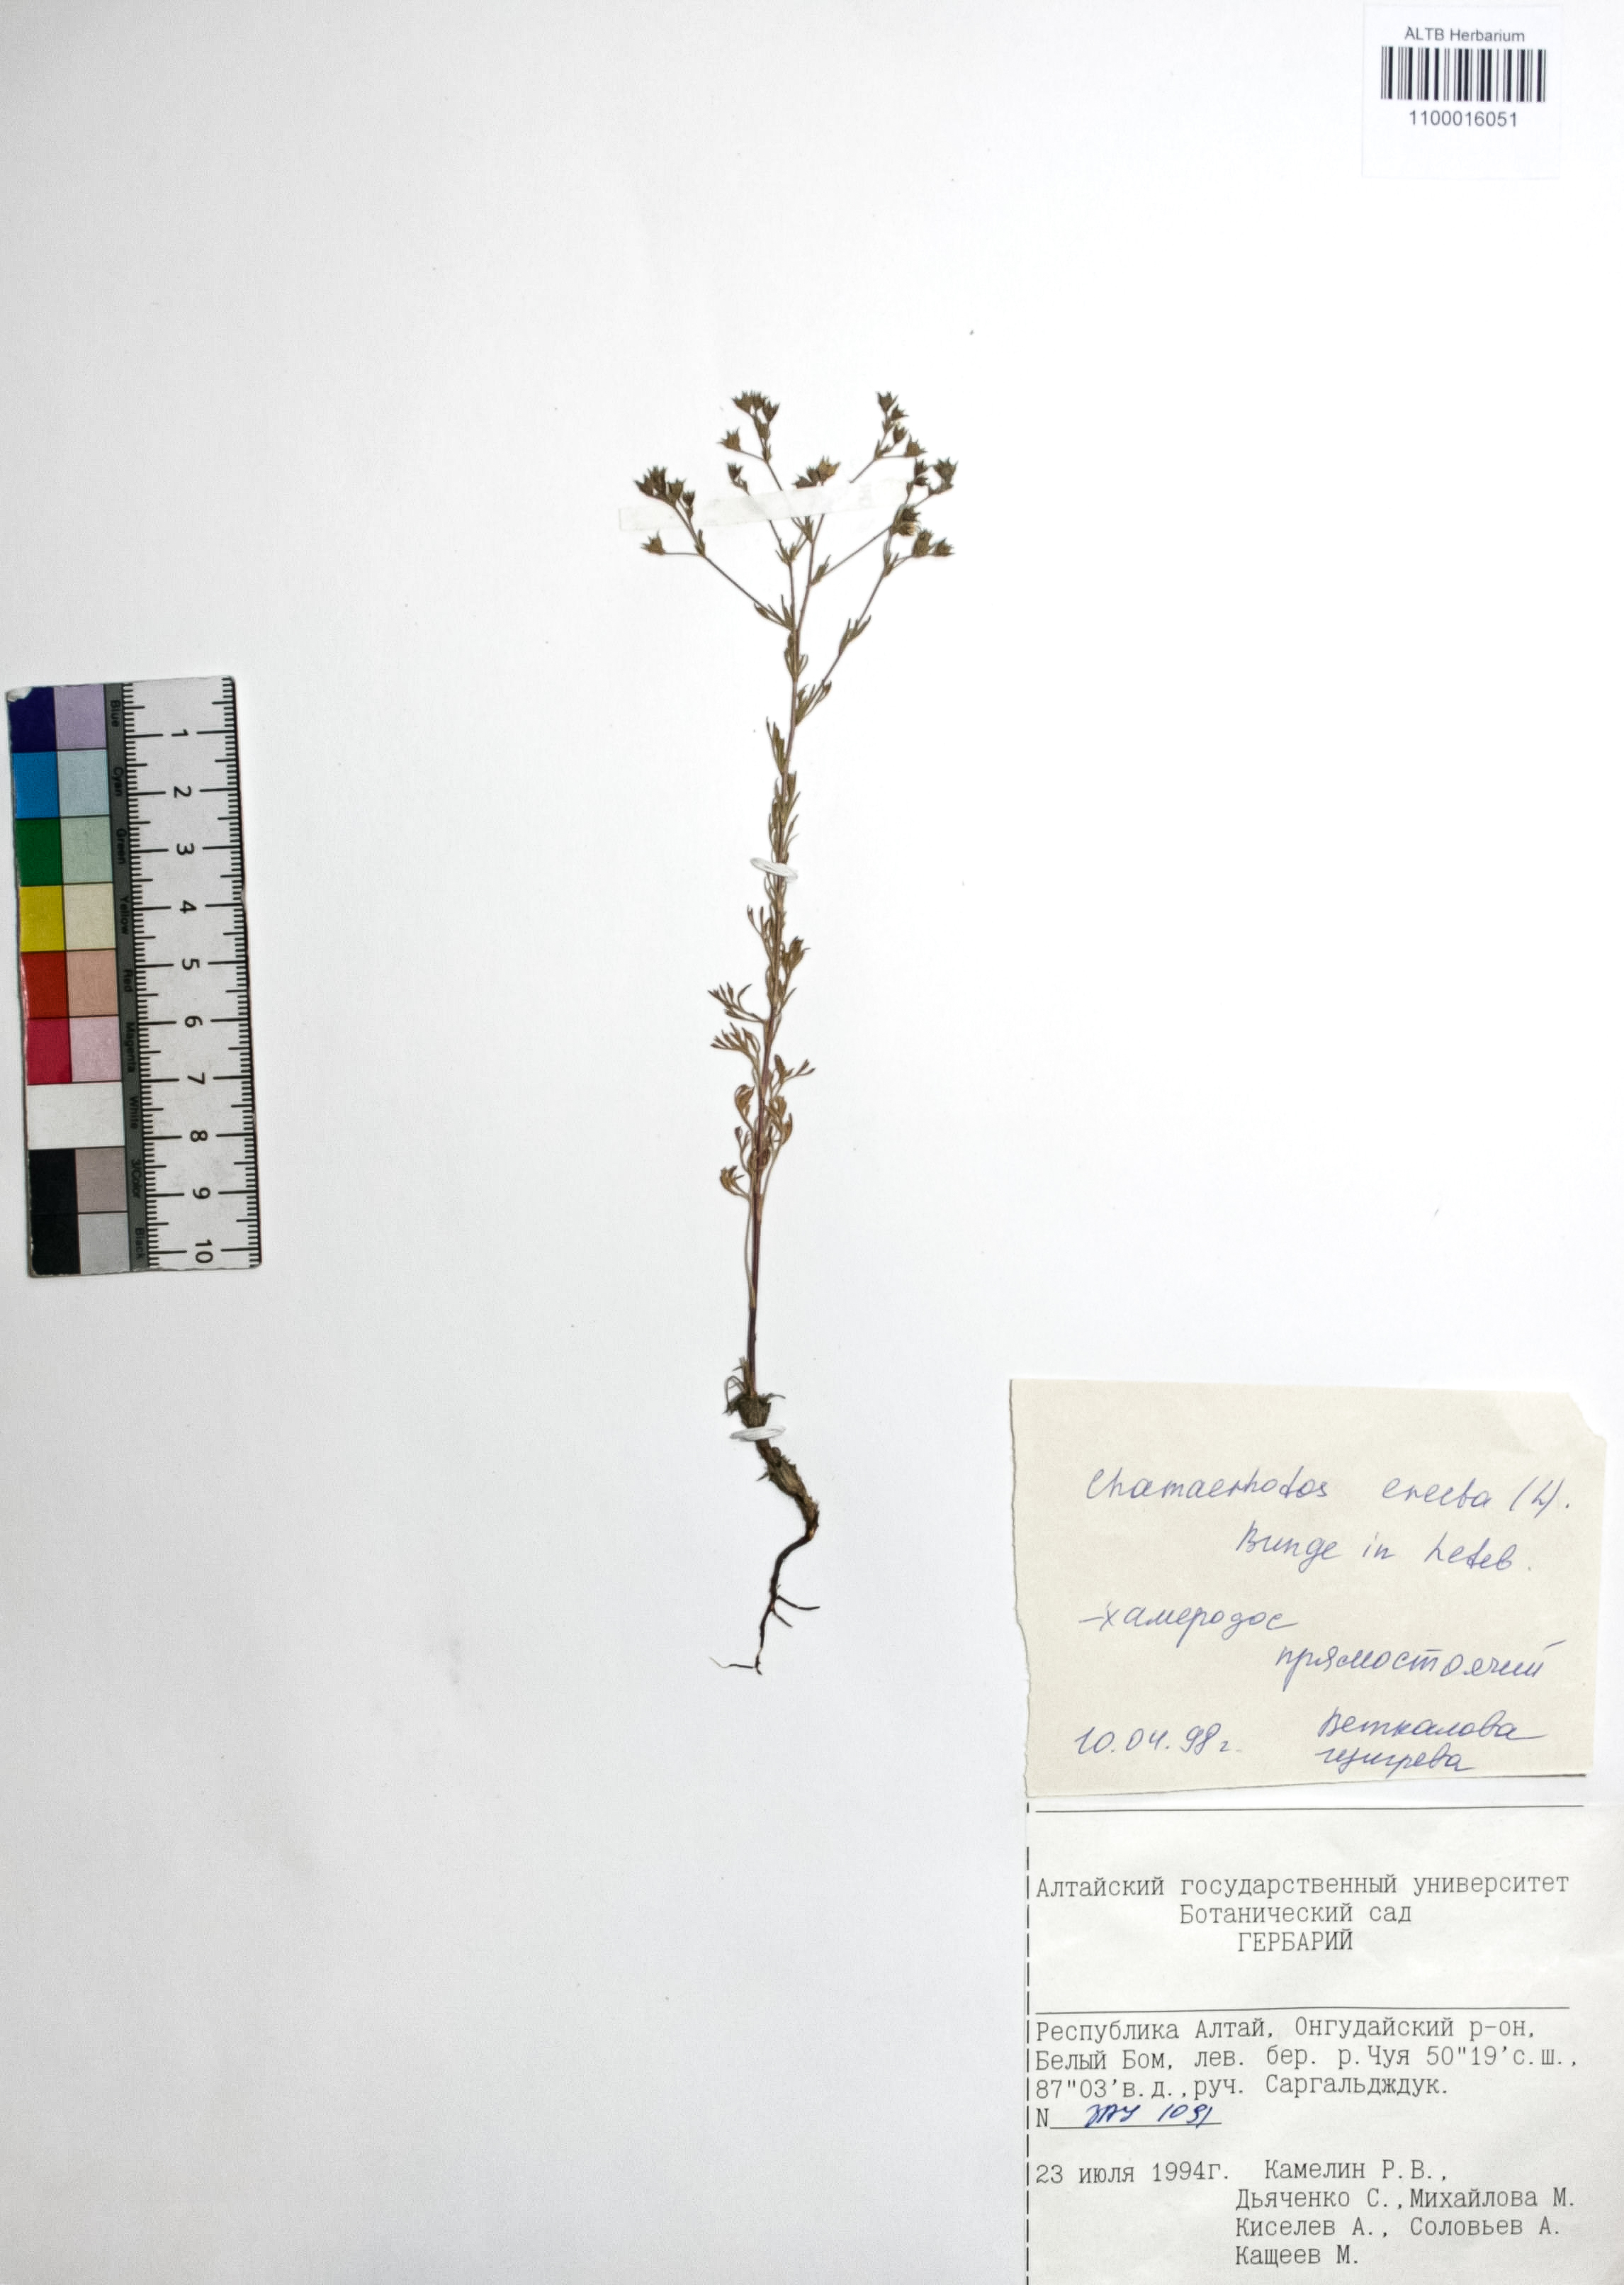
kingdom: Plantae
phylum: Tracheophyta
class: Magnoliopsida
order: Rosales
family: Rosaceae
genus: Chamaerhodos
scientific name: Chamaerhodos erecta
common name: American chamaerhodos
